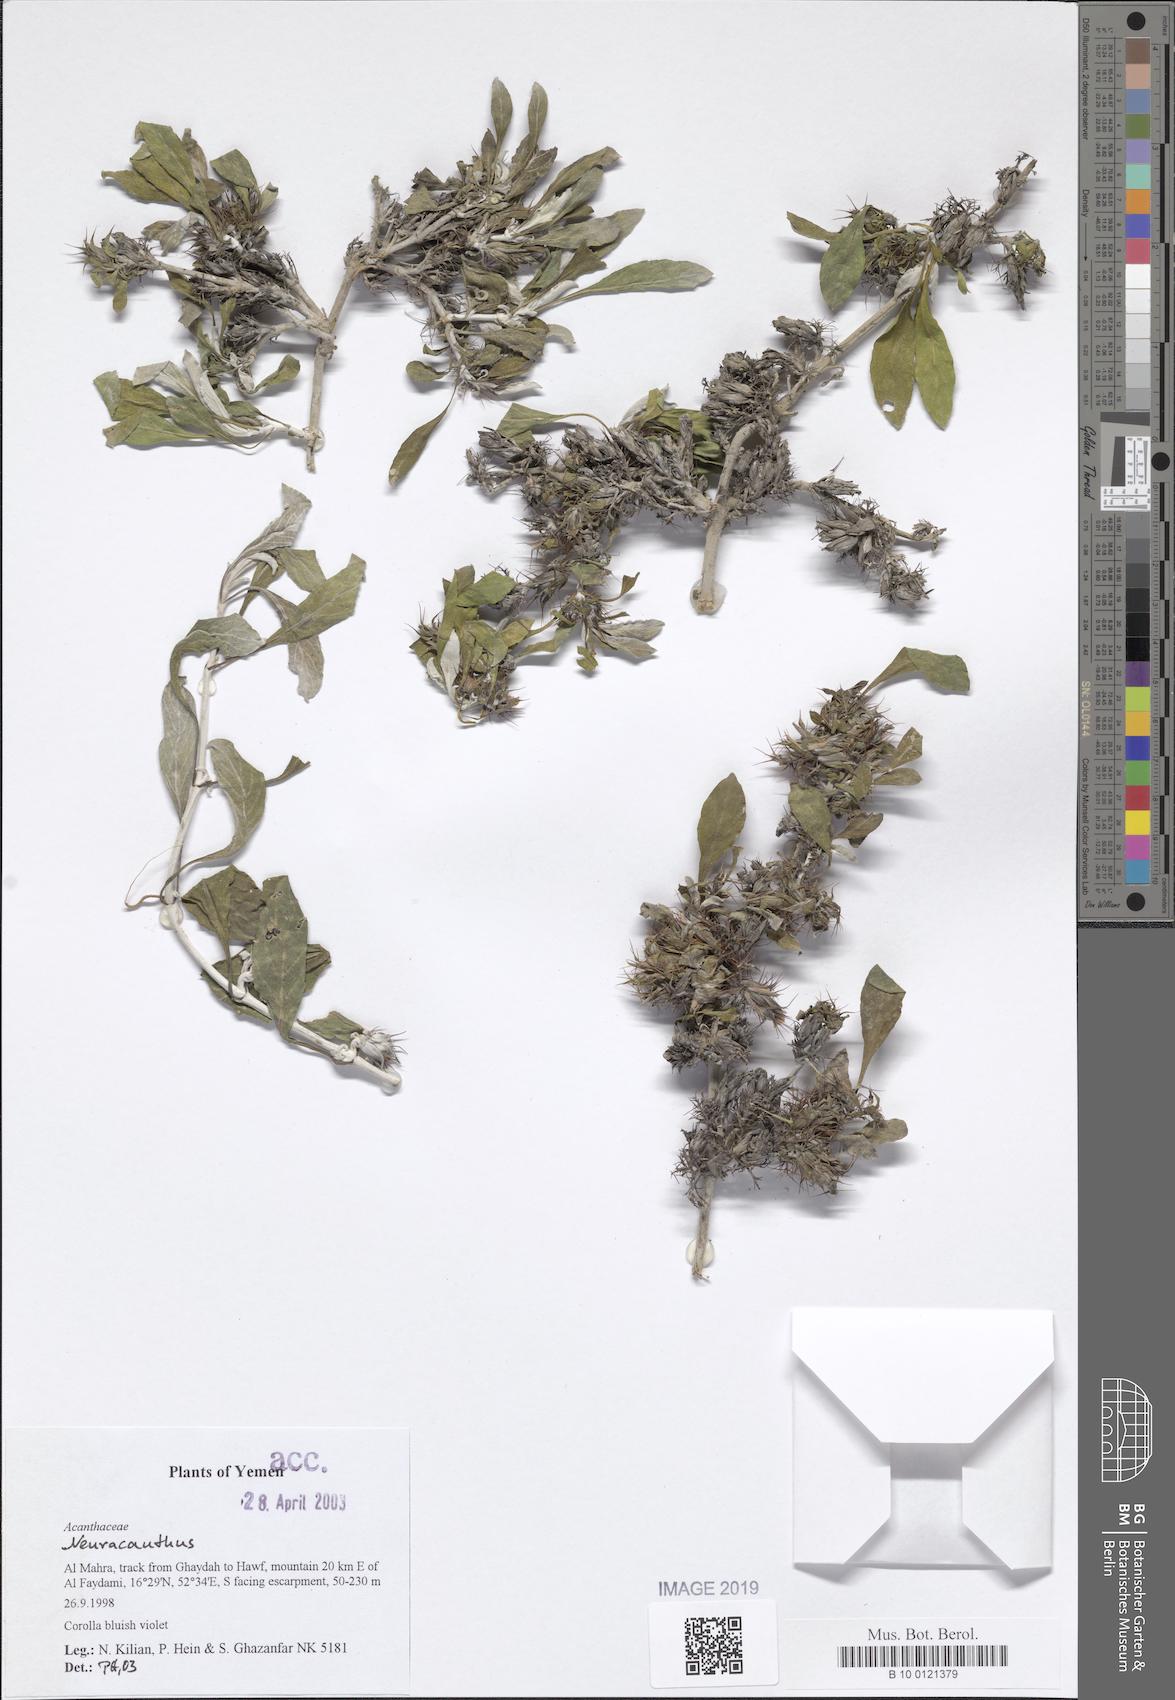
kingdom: Plantae
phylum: Tracheophyta
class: Magnoliopsida
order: Lamiales
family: Acanthaceae
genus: Neuracanthus
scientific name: Neuracanthus
